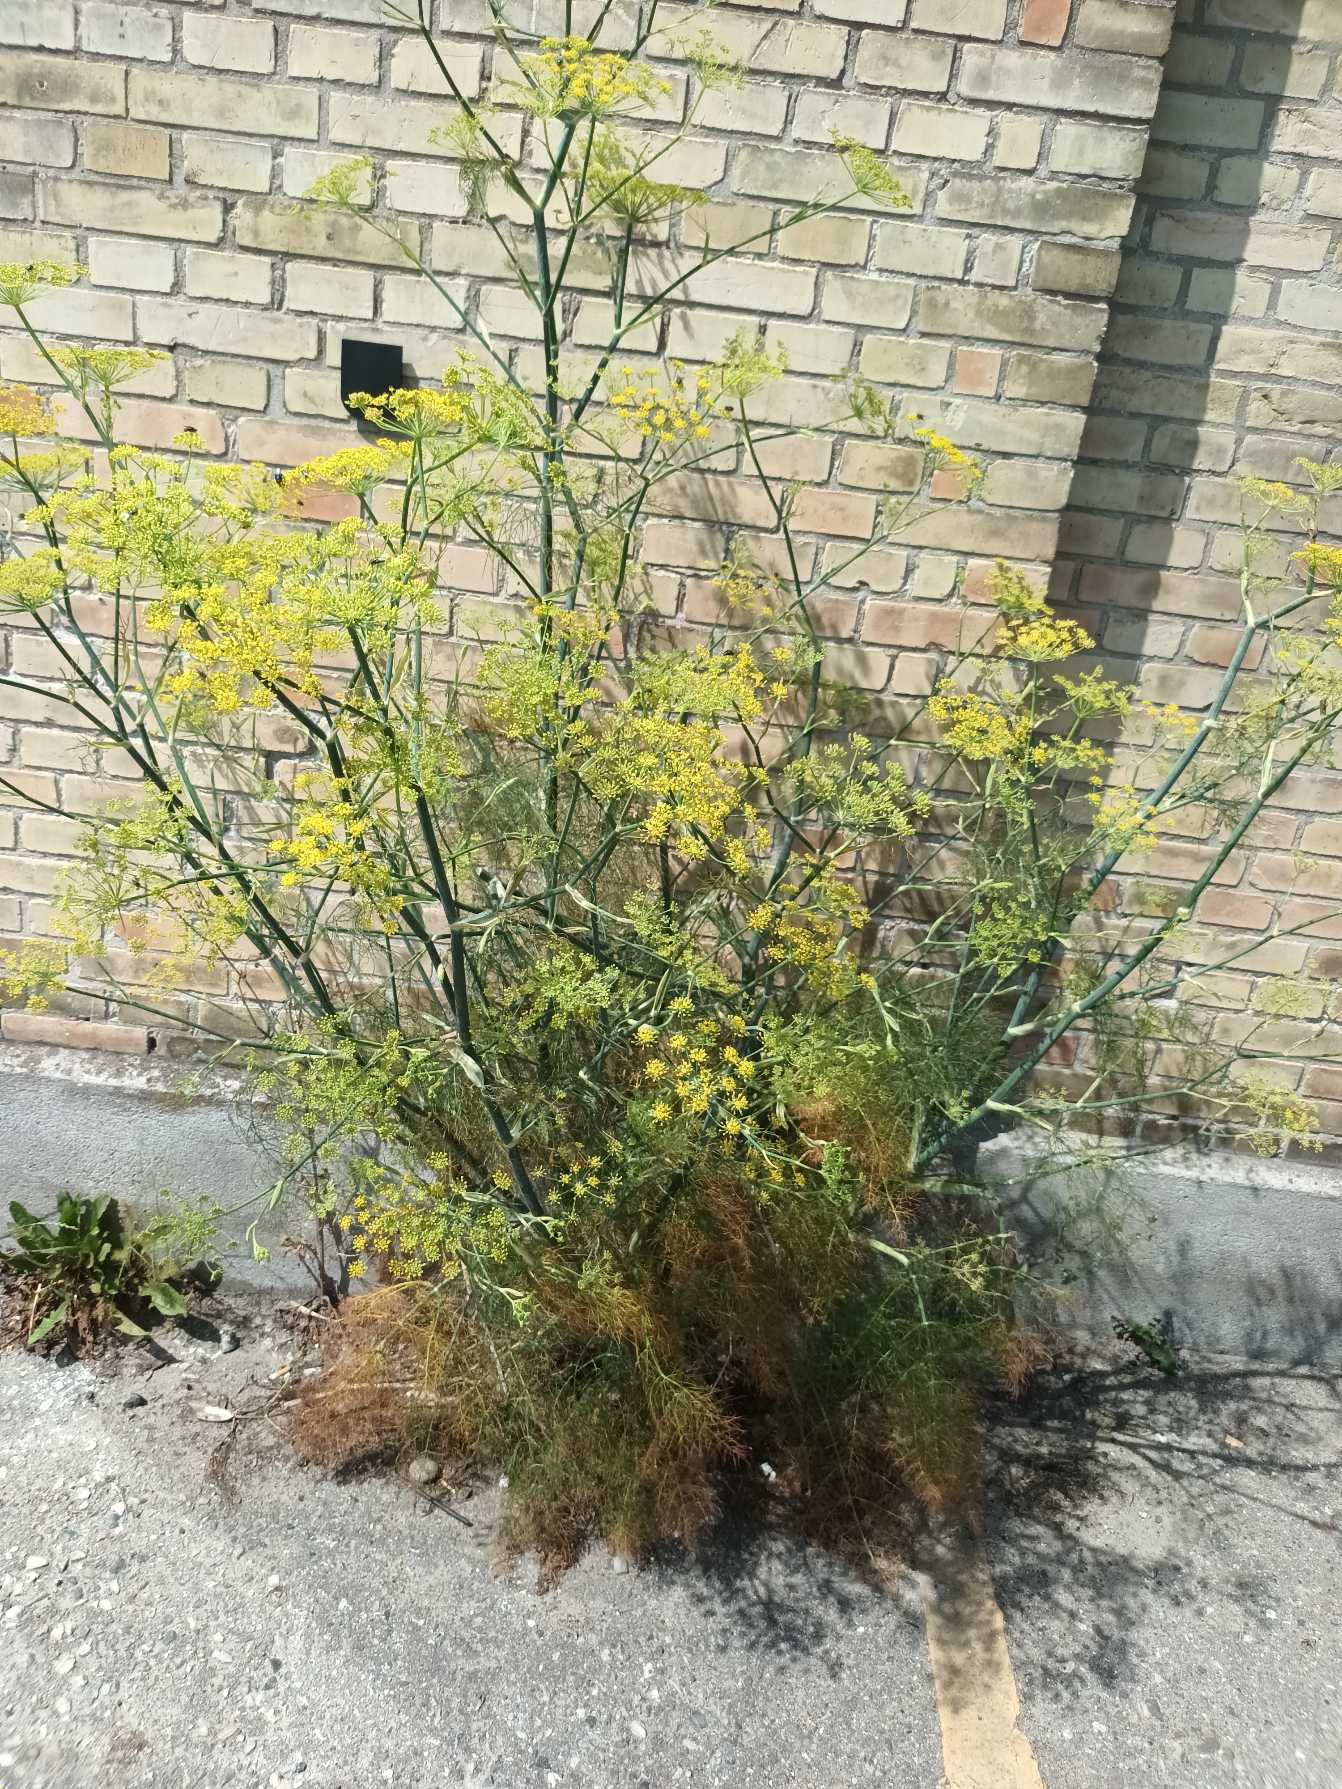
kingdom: Plantae
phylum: Tracheophyta
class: Magnoliopsida
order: Apiales
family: Apiaceae
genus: Foeniculum
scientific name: Foeniculum vulgare
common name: Fennikel
